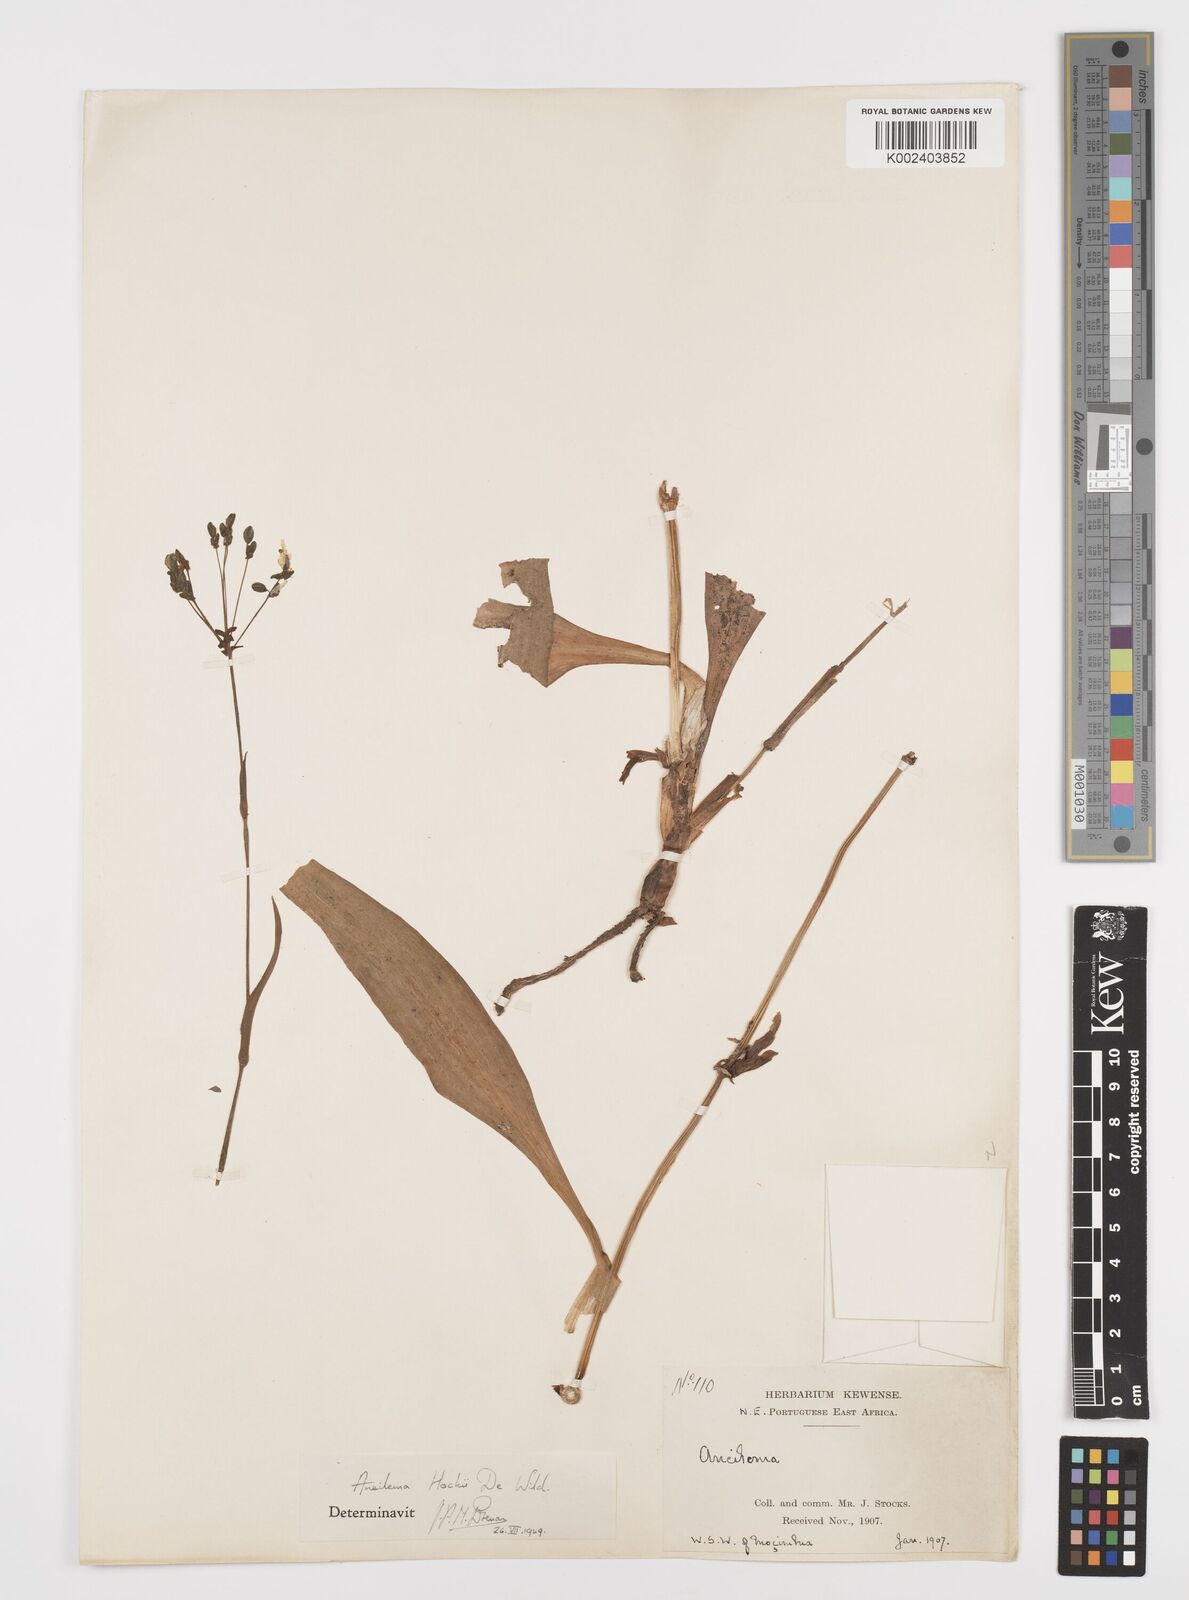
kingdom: Plantae
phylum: Tracheophyta
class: Liliopsida
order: Commelinales
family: Commelinaceae
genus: Aneilema
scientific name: Aneilema hockii
